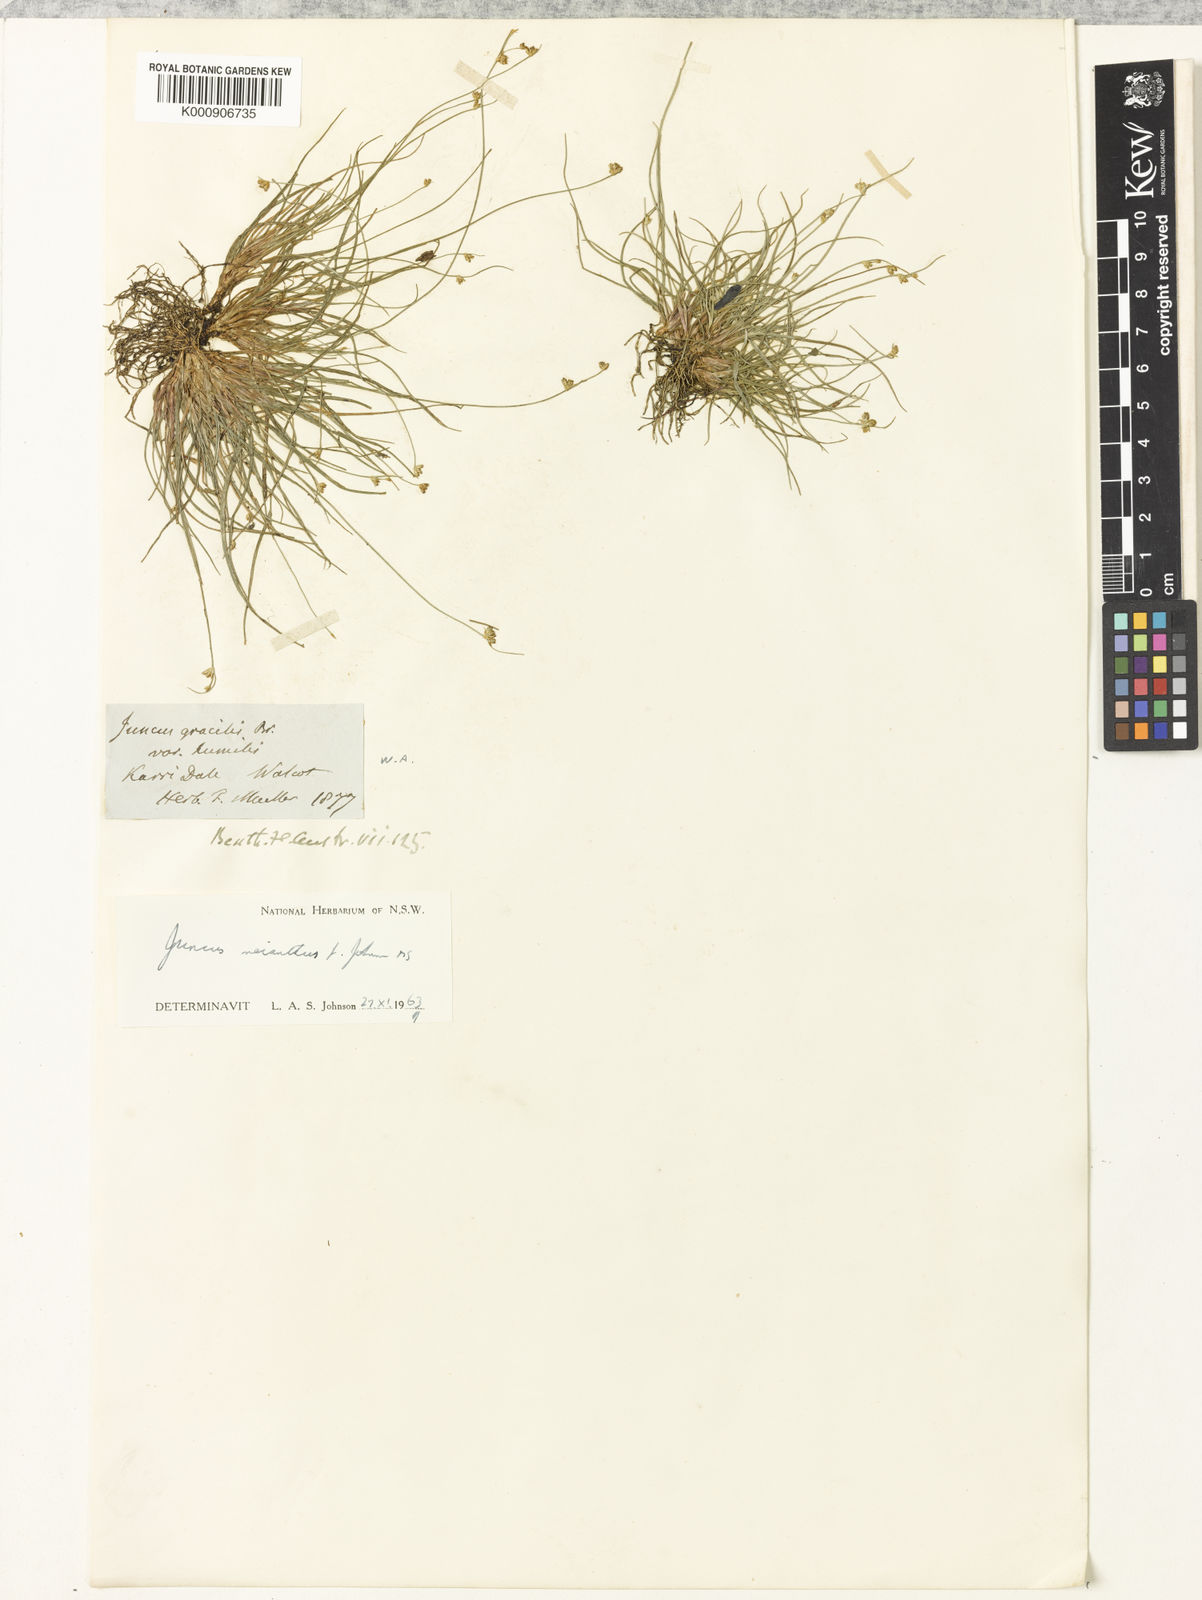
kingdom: Plantae
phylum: Tracheophyta
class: Liliopsida
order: Poales
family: Juncaceae
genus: Juncus
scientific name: Juncus meianthus
